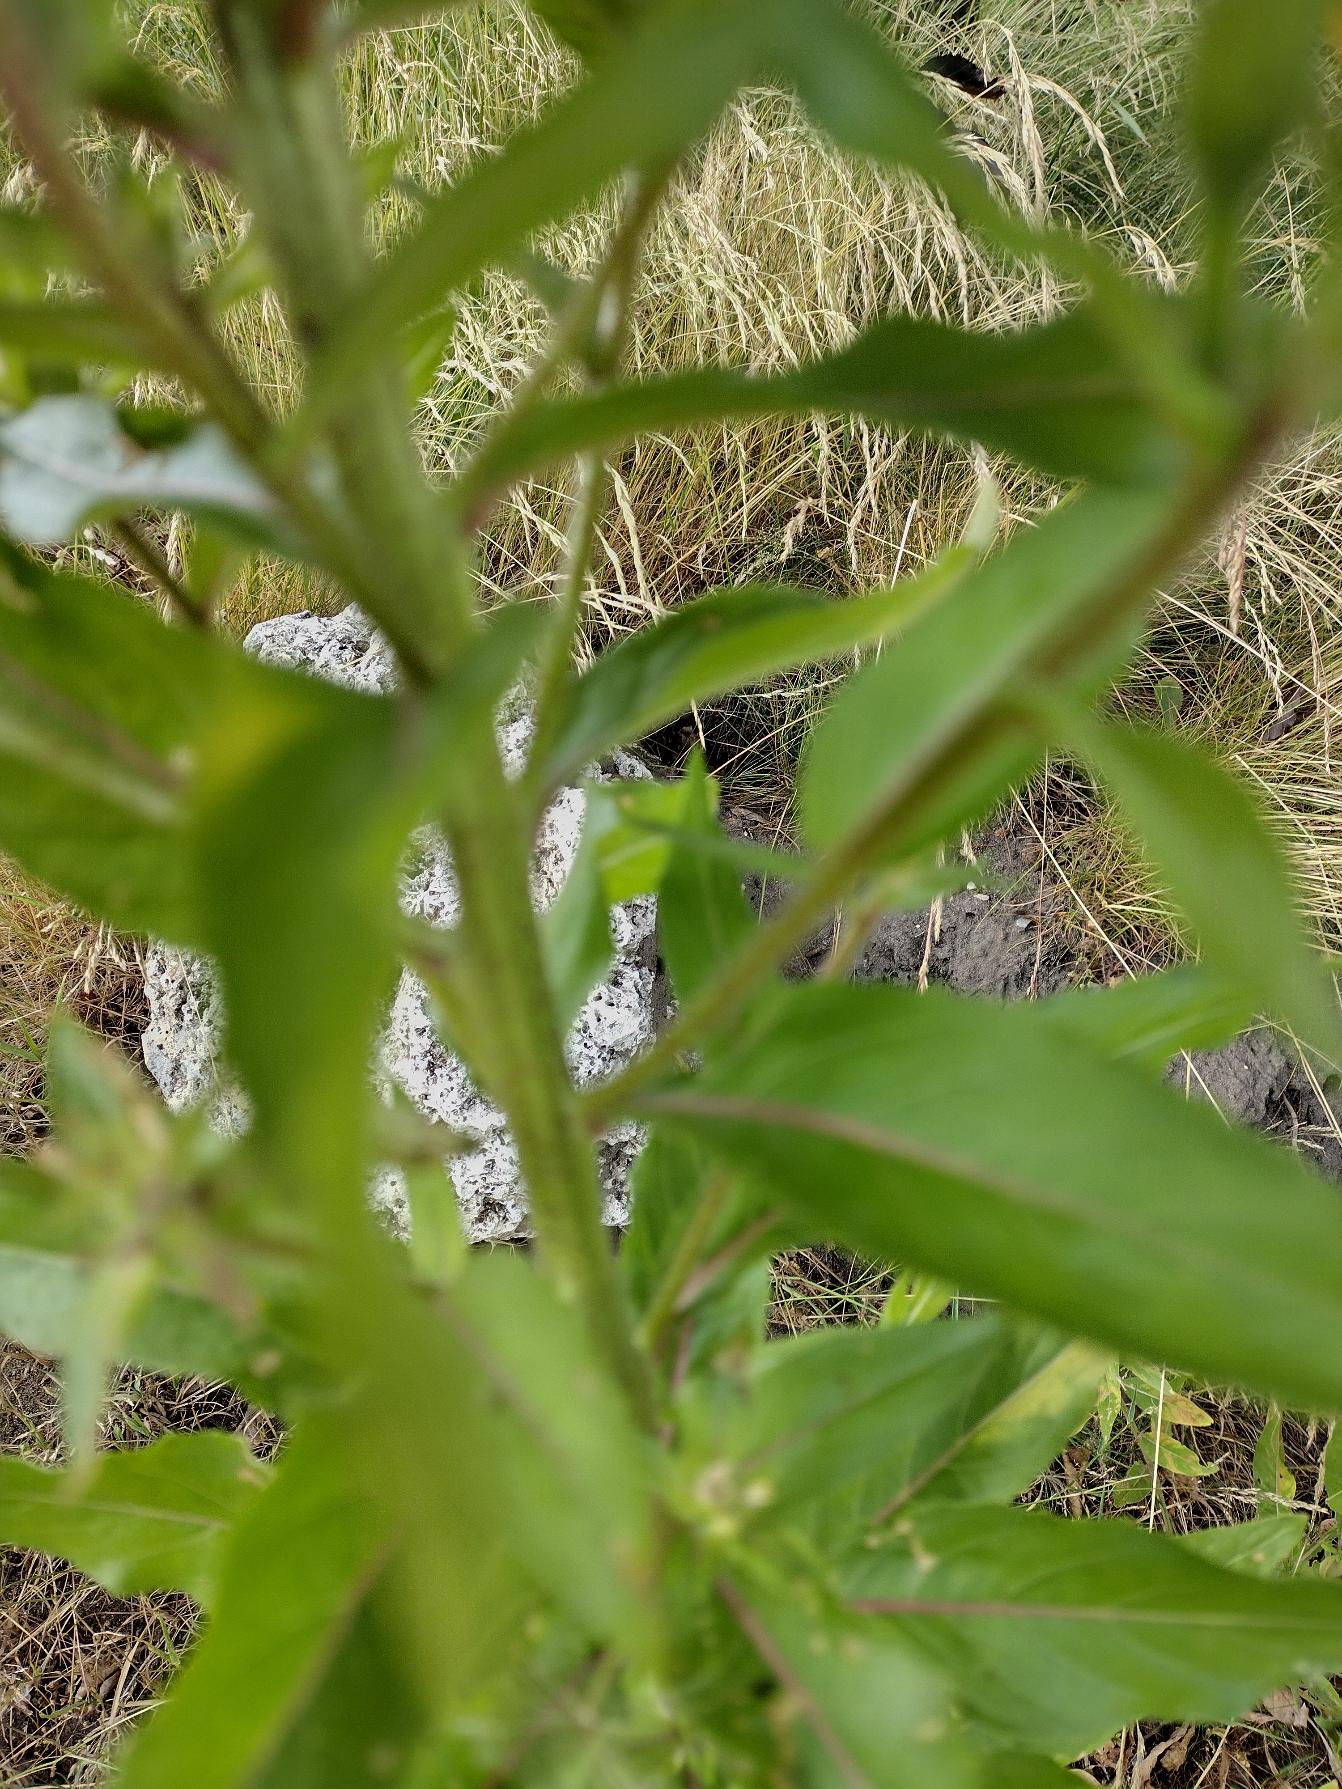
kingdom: Plantae
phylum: Tracheophyta
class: Magnoliopsida
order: Myrtales
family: Onagraceae
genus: Oenothera
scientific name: Oenothera glazioviana
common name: Kæmpe-natlys
